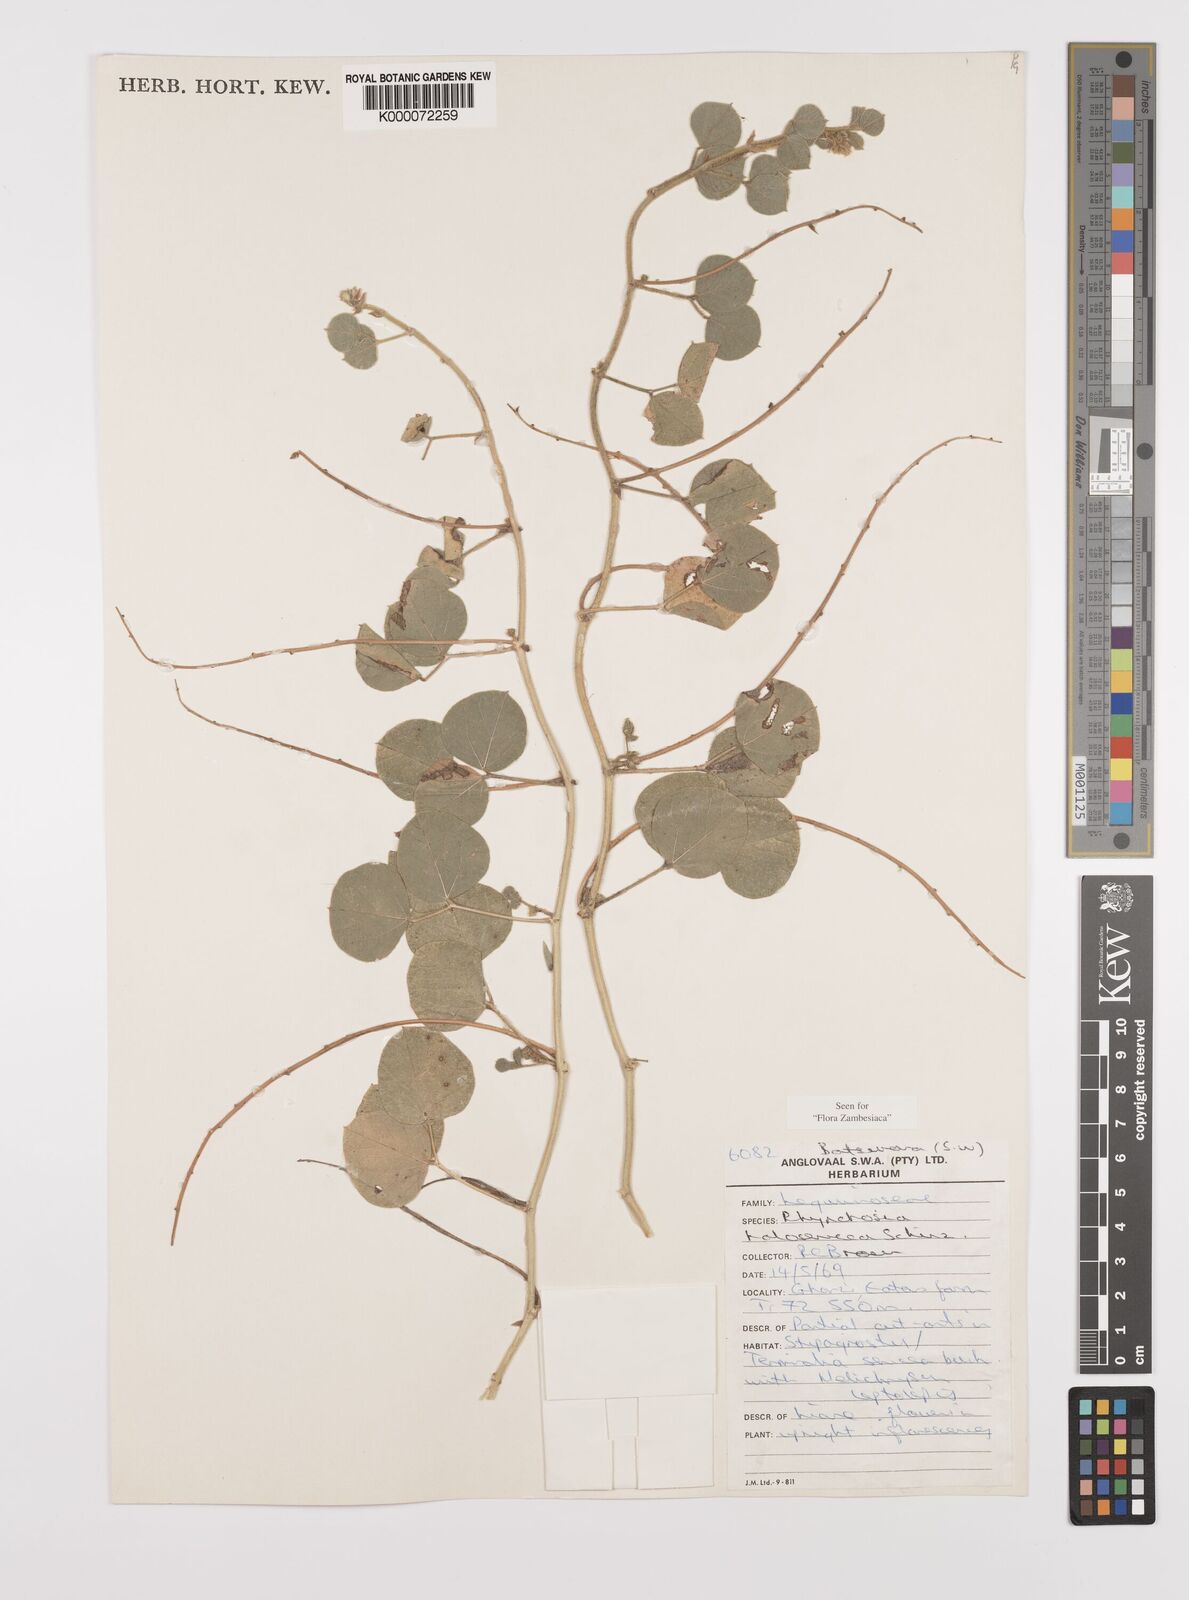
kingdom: Plantae
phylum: Tracheophyta
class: Magnoliopsida
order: Fabales
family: Fabaceae
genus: Rhynchosia
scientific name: Rhynchosia holosericea
